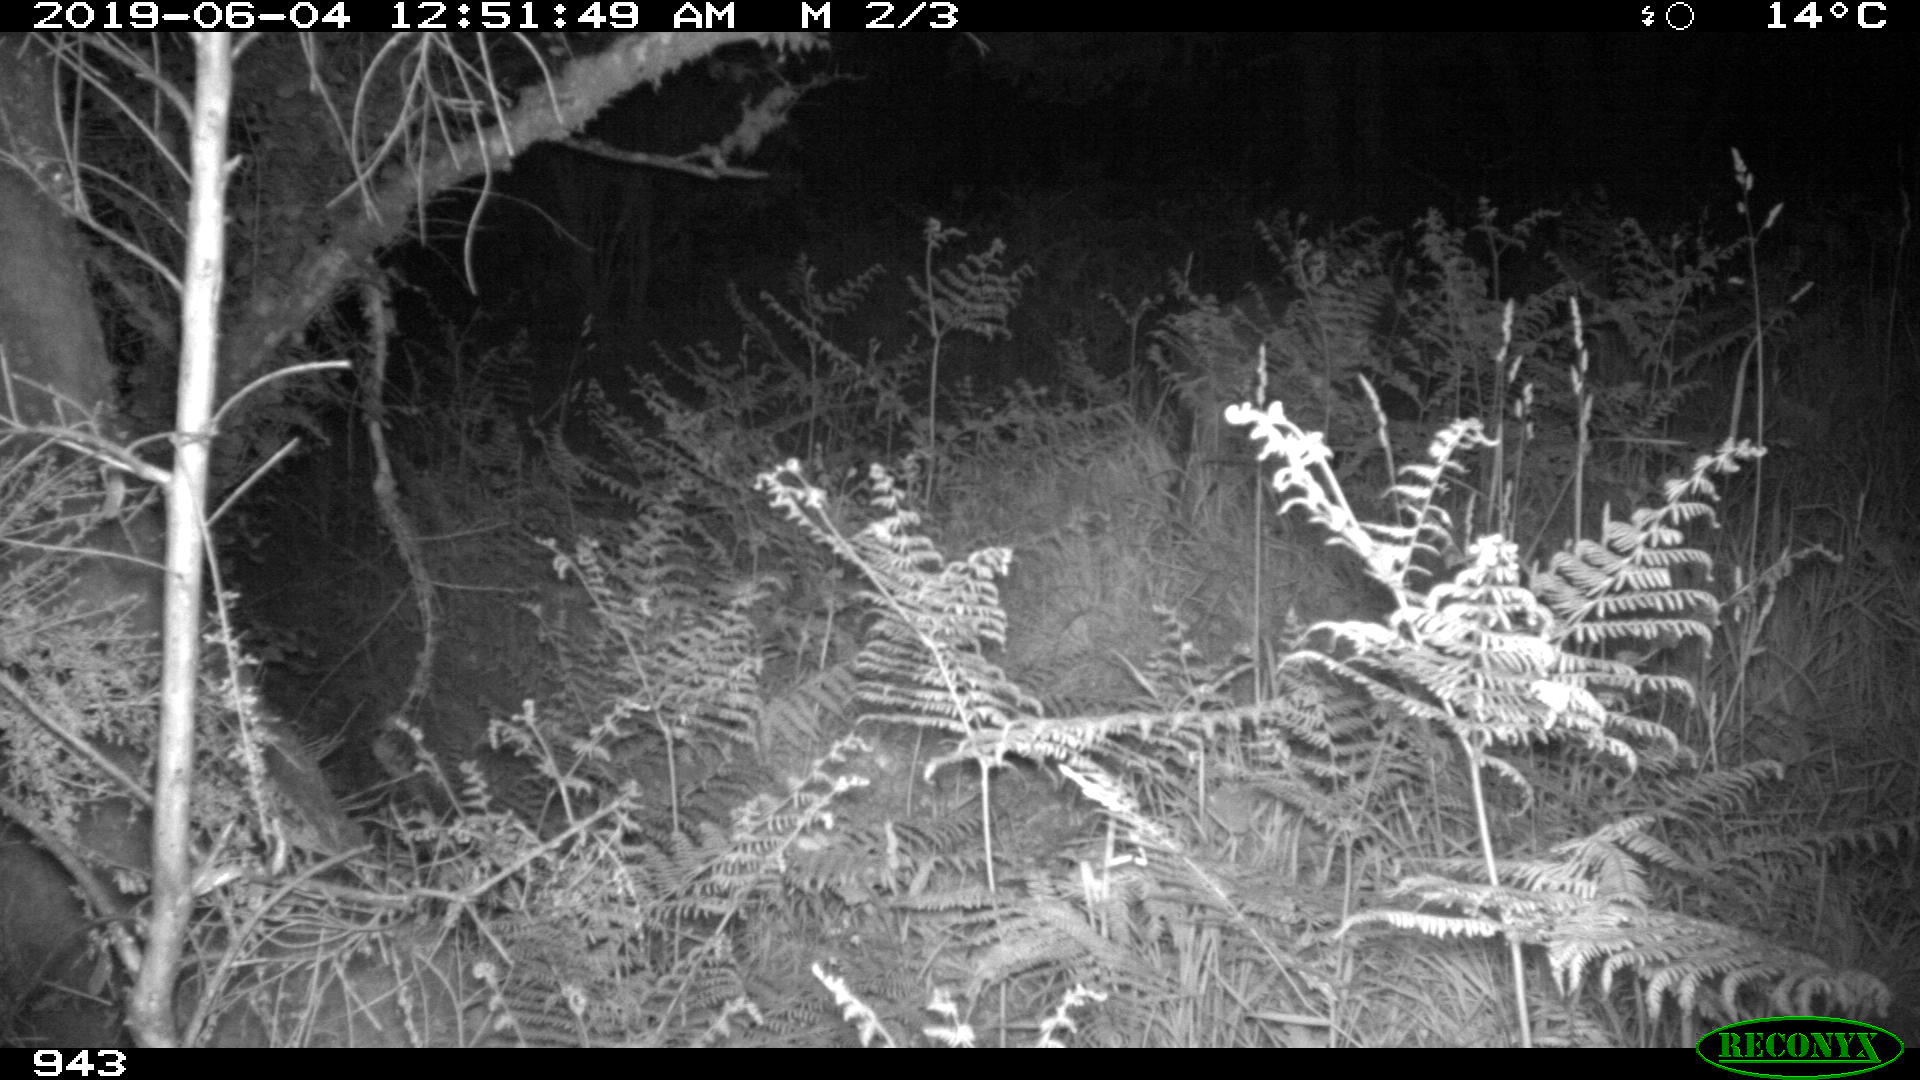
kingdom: Animalia
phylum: Chordata
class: Mammalia
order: Artiodactyla
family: Suidae
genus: Sus
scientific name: Sus scrofa
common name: Wild boar
